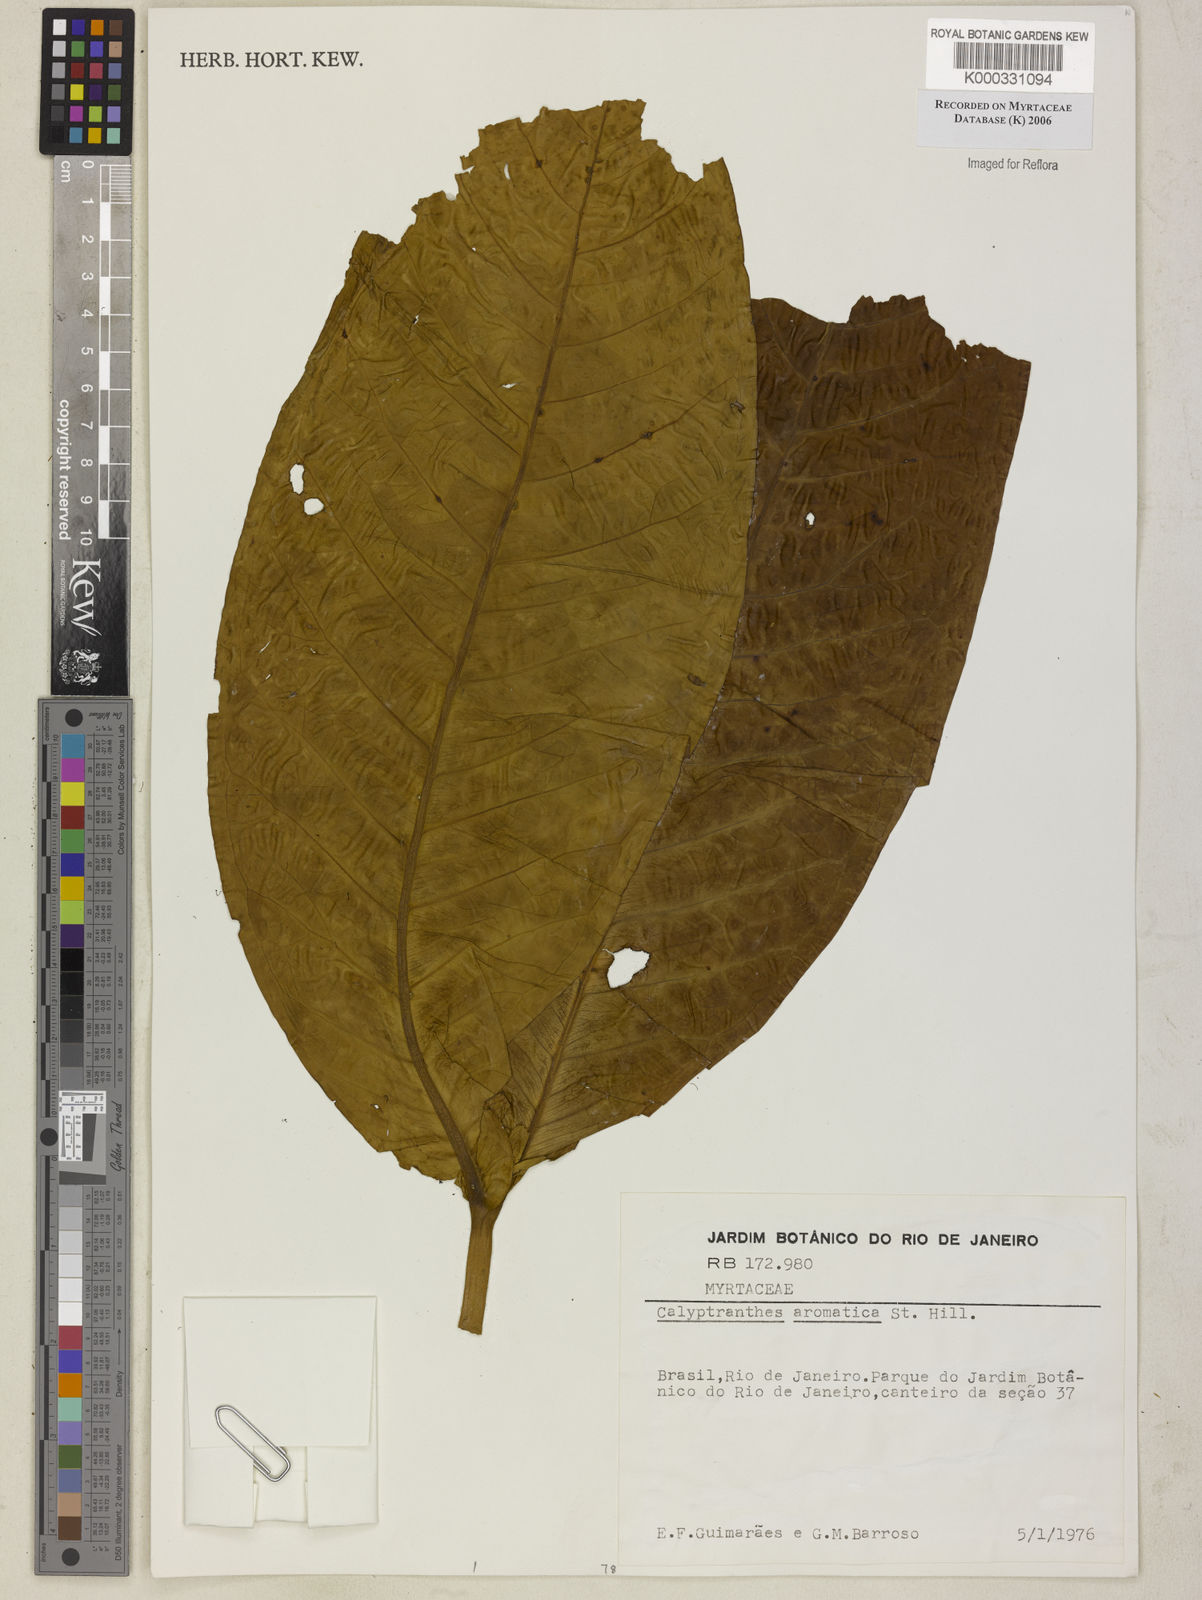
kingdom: Plantae
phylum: Tracheophyta
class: Magnoliopsida
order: Myrtales
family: Myrtaceae
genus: Myrcia
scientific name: Myrcia carioca
